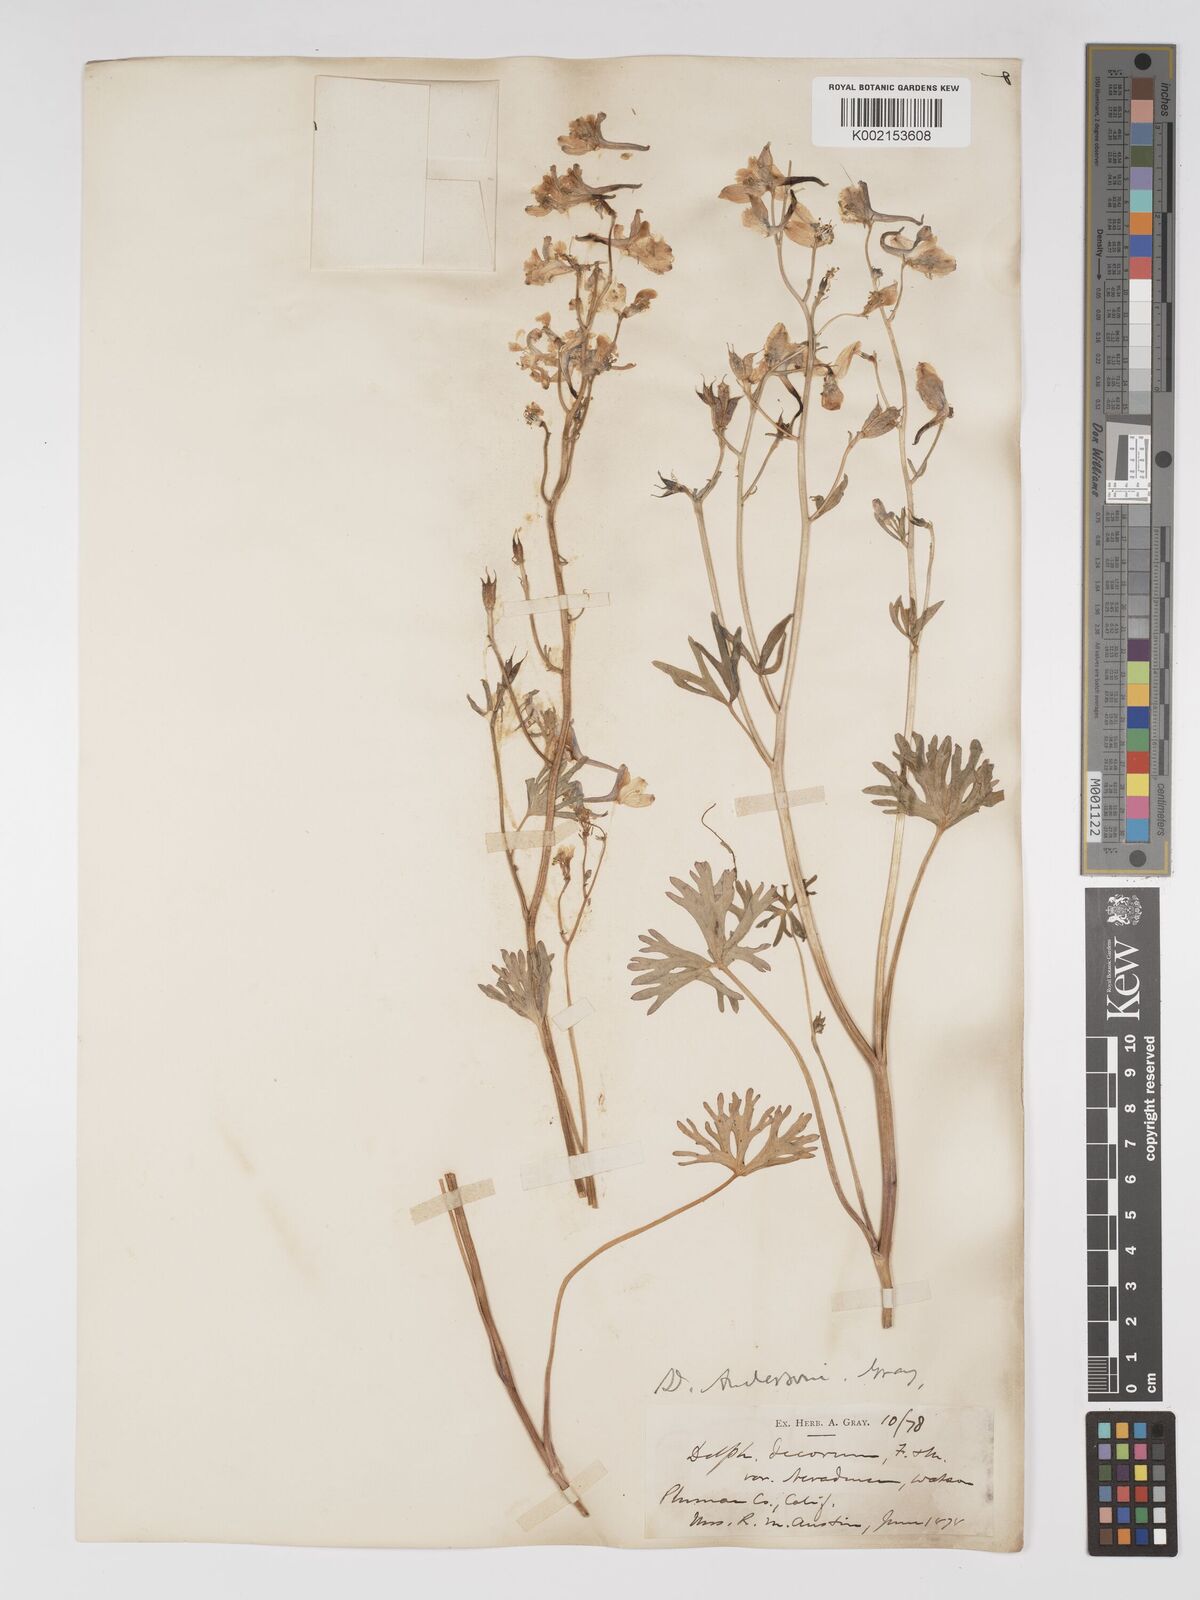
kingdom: Plantae
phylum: Tracheophyta
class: Magnoliopsida
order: Ranunculales
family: Ranunculaceae
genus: Delphinium
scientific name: Delphinium andersonii
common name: Anderson's larkspur
